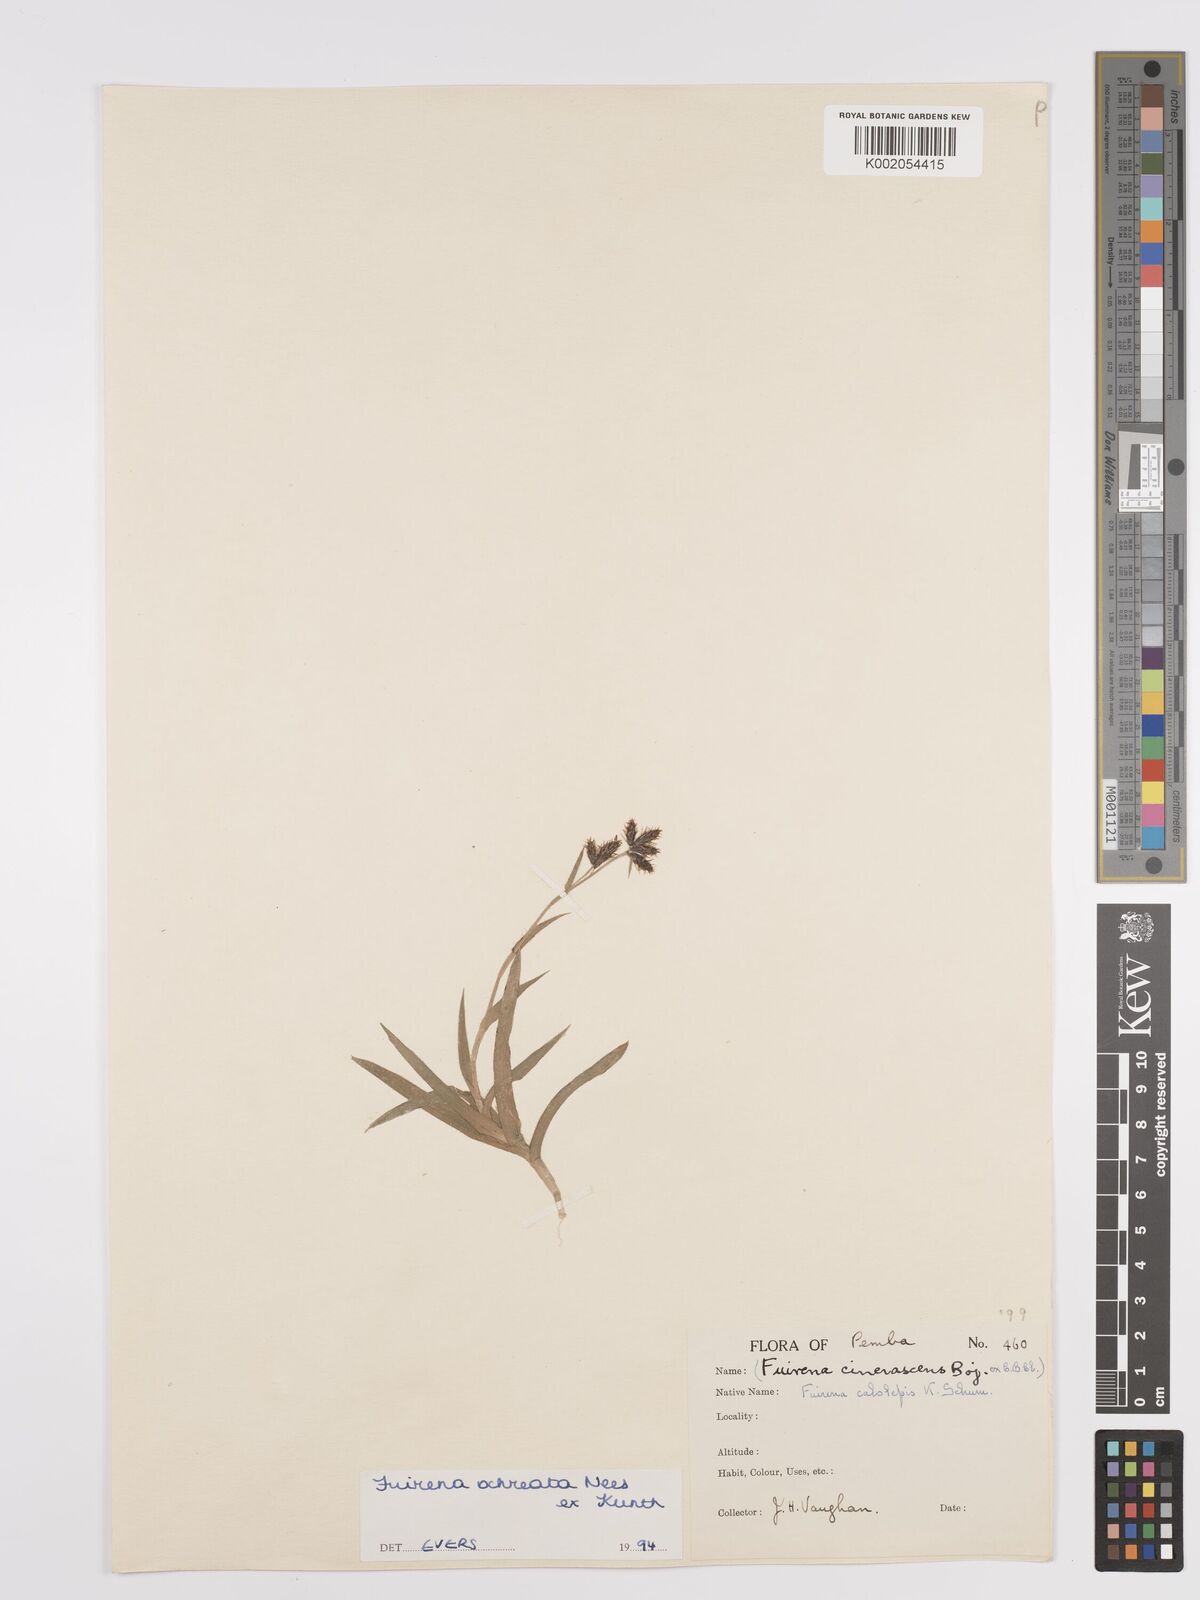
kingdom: Plantae
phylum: Tracheophyta
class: Liliopsida
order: Poales
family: Cyperaceae
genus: Fuirena
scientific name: Fuirena ochreata
